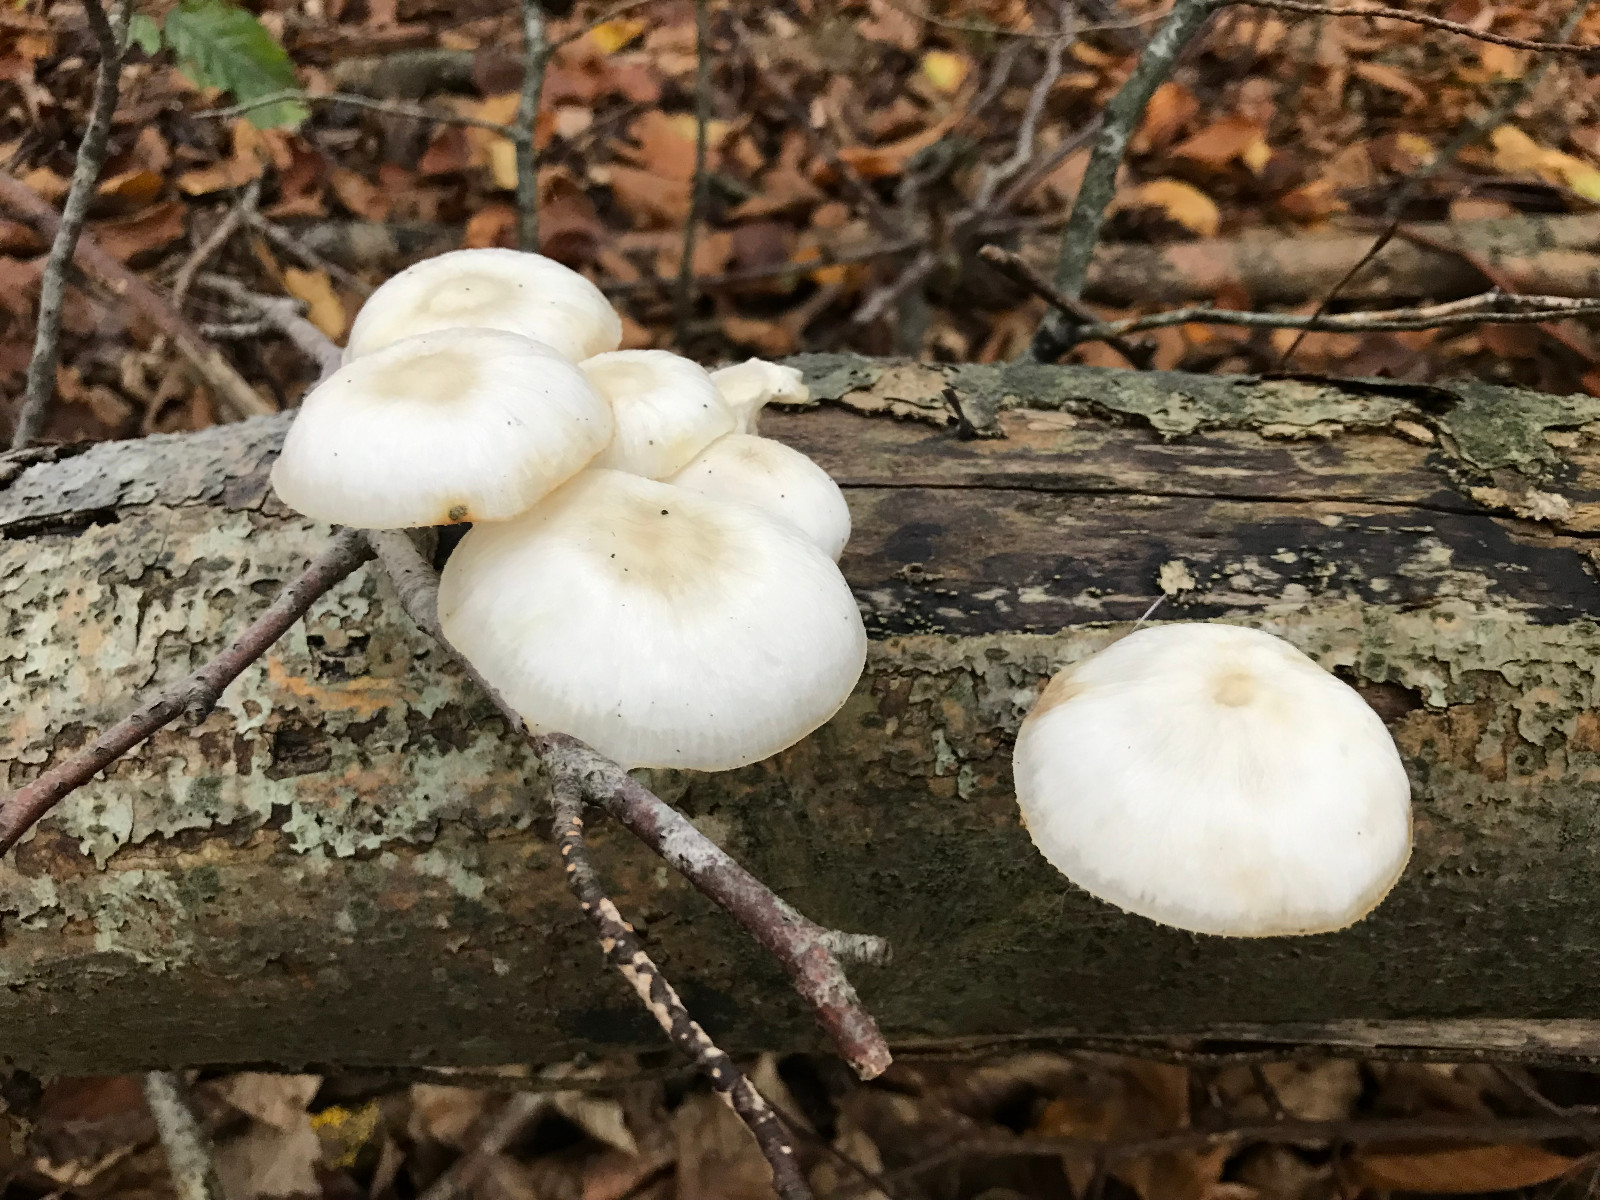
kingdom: Fungi
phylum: Basidiomycota
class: Agaricomycetes
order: Agaricales
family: Physalacriaceae
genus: Mucidula
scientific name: Mucidula mucida
